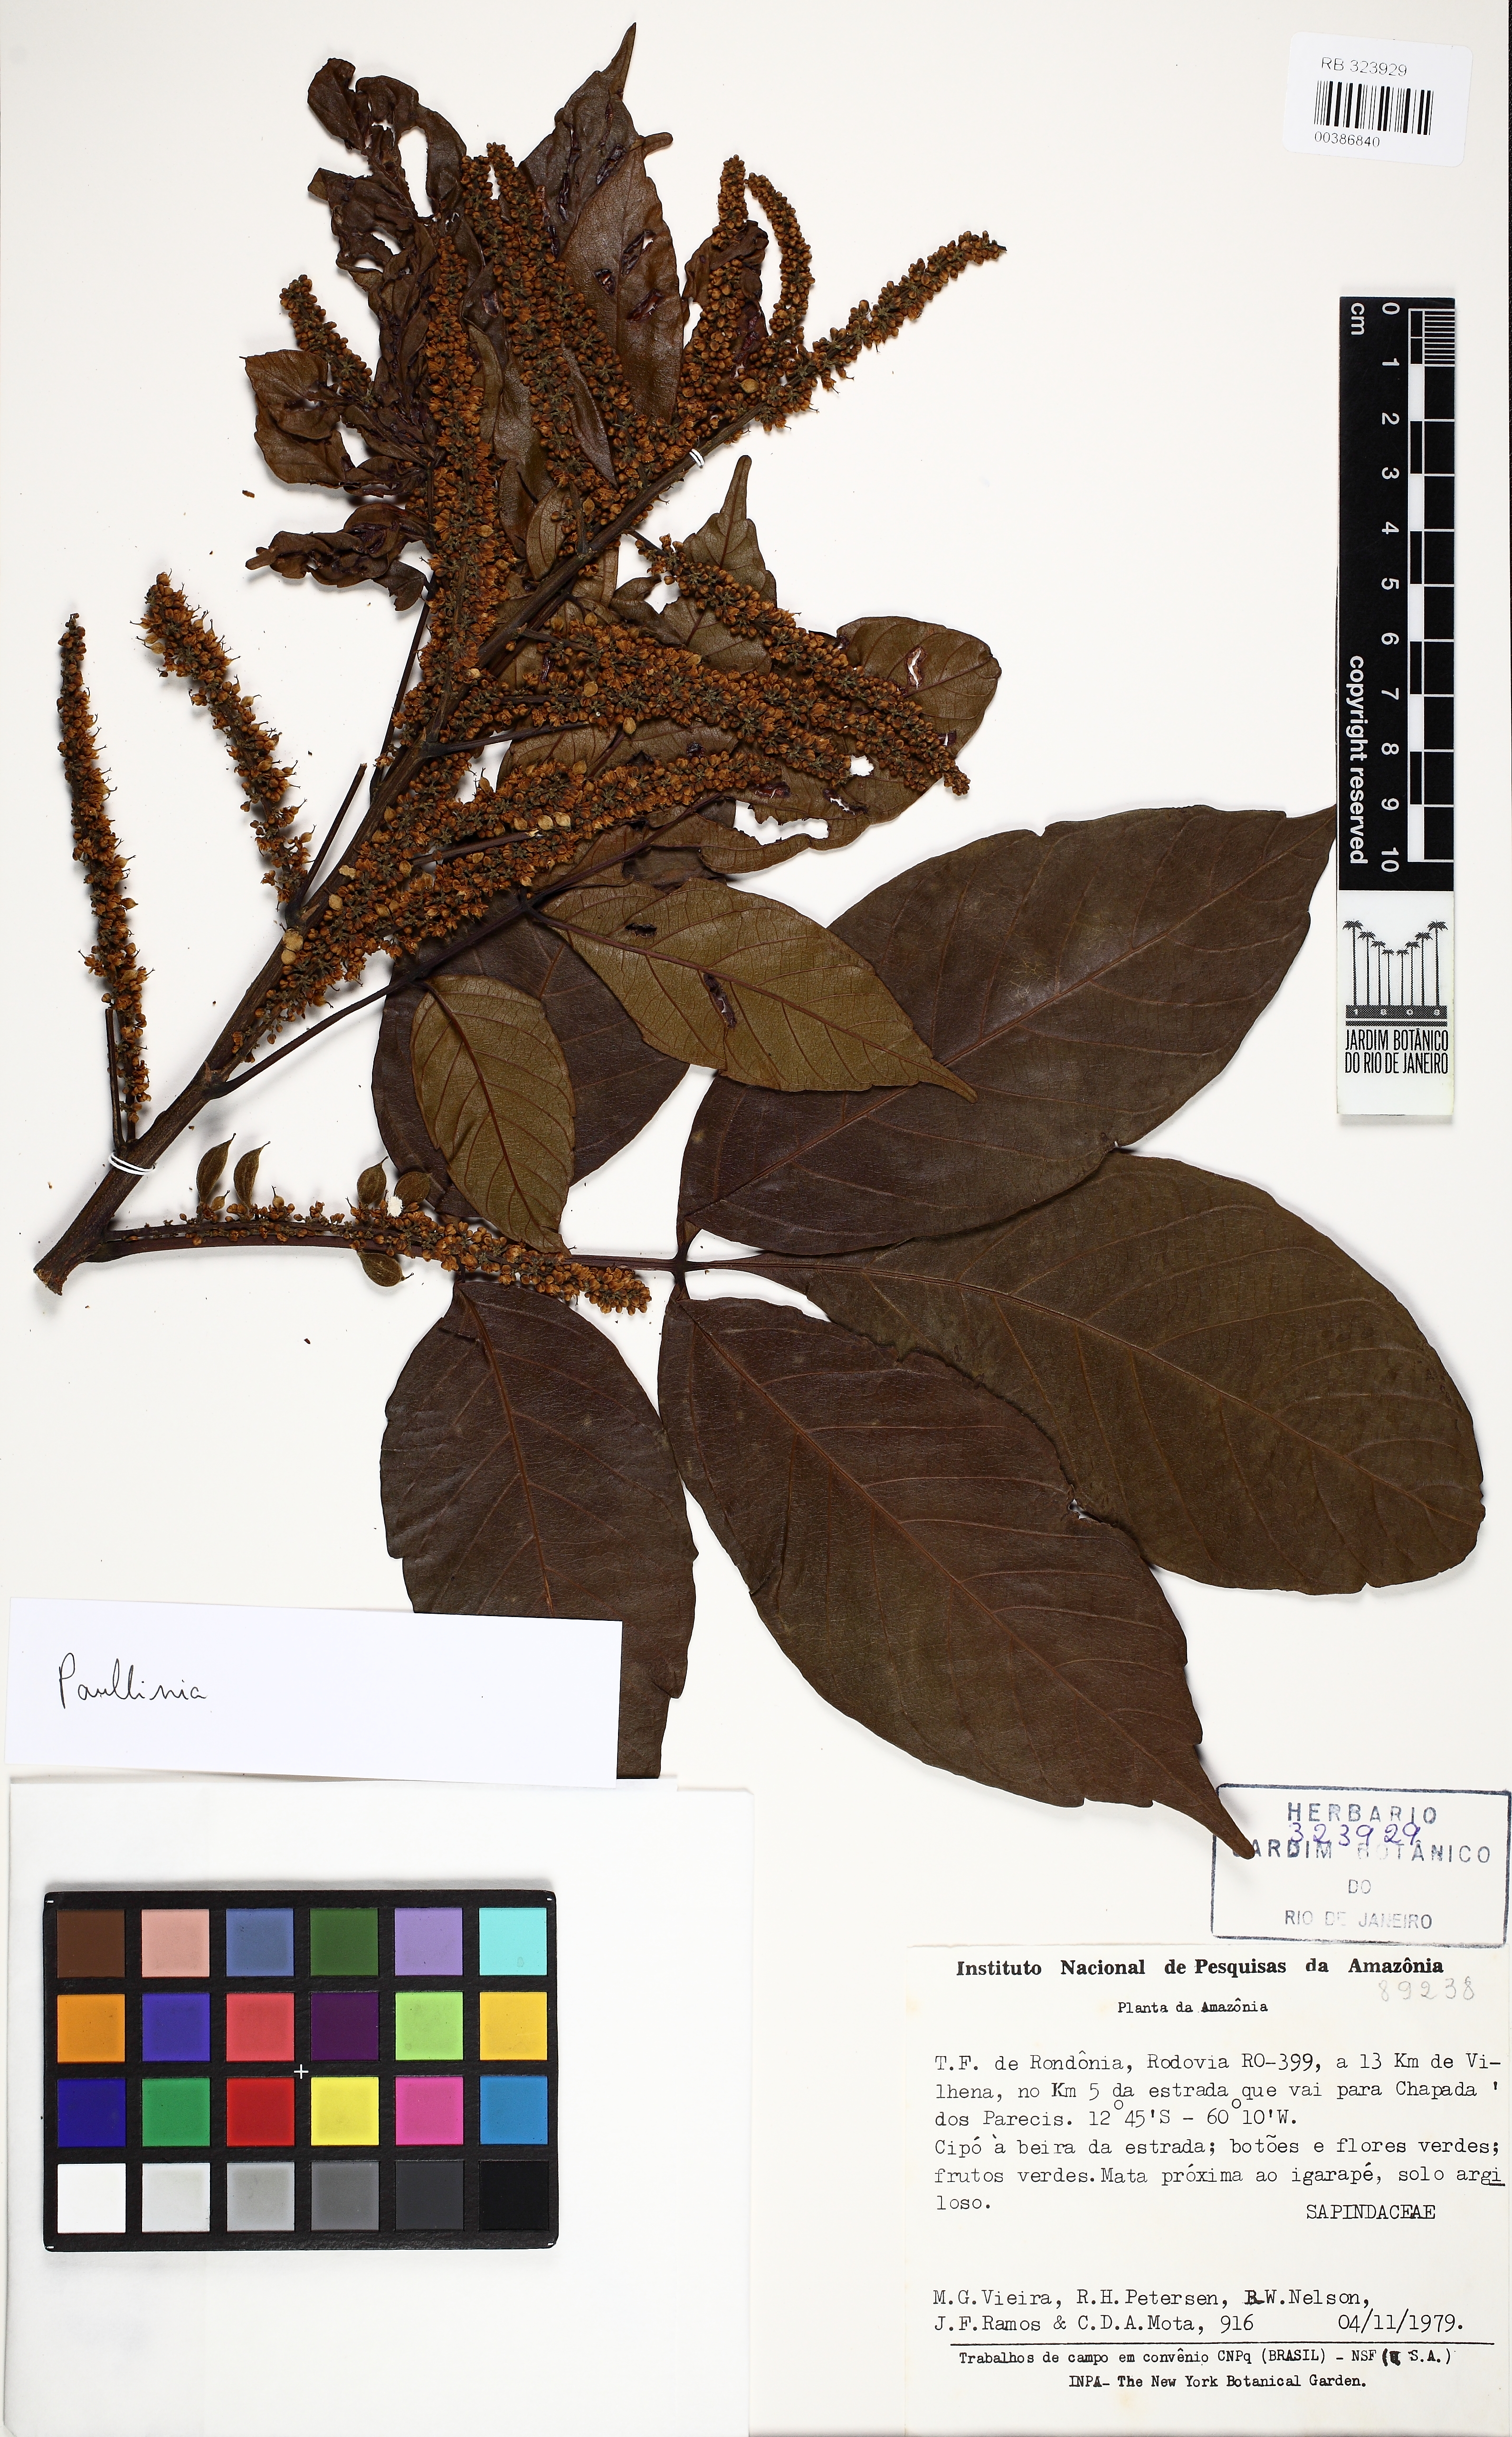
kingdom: Plantae
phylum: Tracheophyta
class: Magnoliopsida
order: Sapindales
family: Sapindaceae
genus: Paullinia
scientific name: Paullinia
